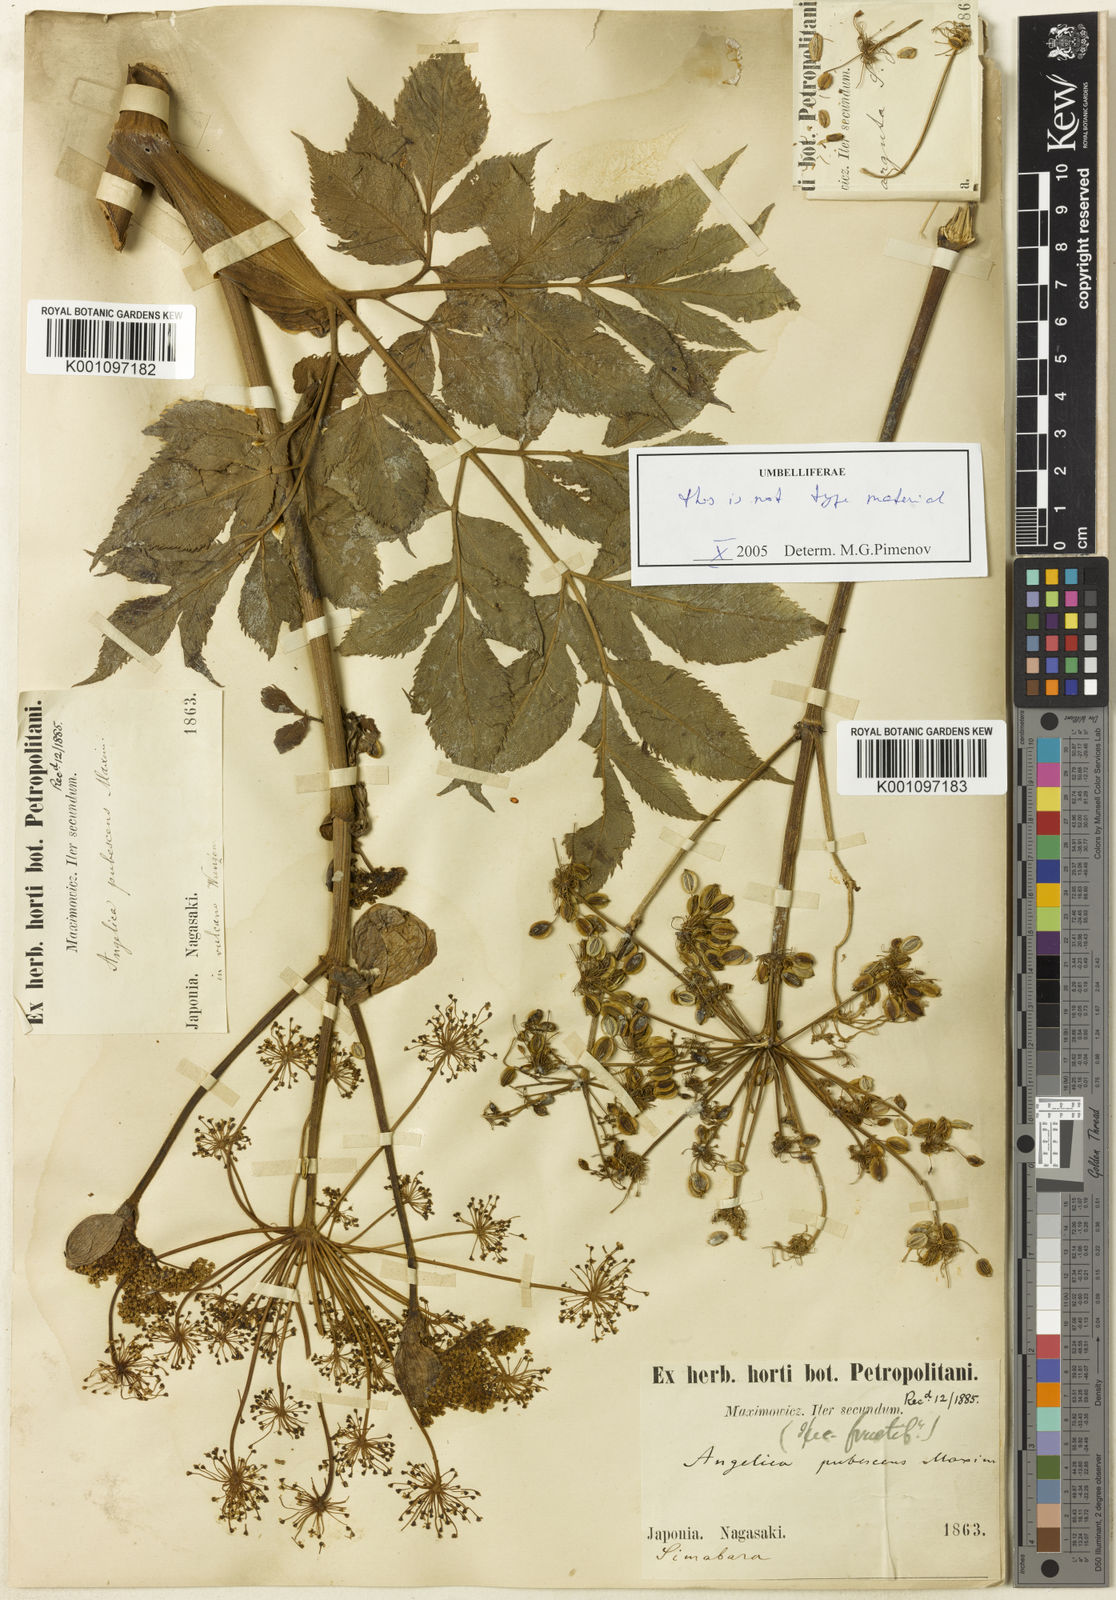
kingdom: Plantae
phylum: Tracheophyta
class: Magnoliopsida
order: Apiales
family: Apiaceae
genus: Angelica
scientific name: Angelica pubescens
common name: Pubescent angelica
